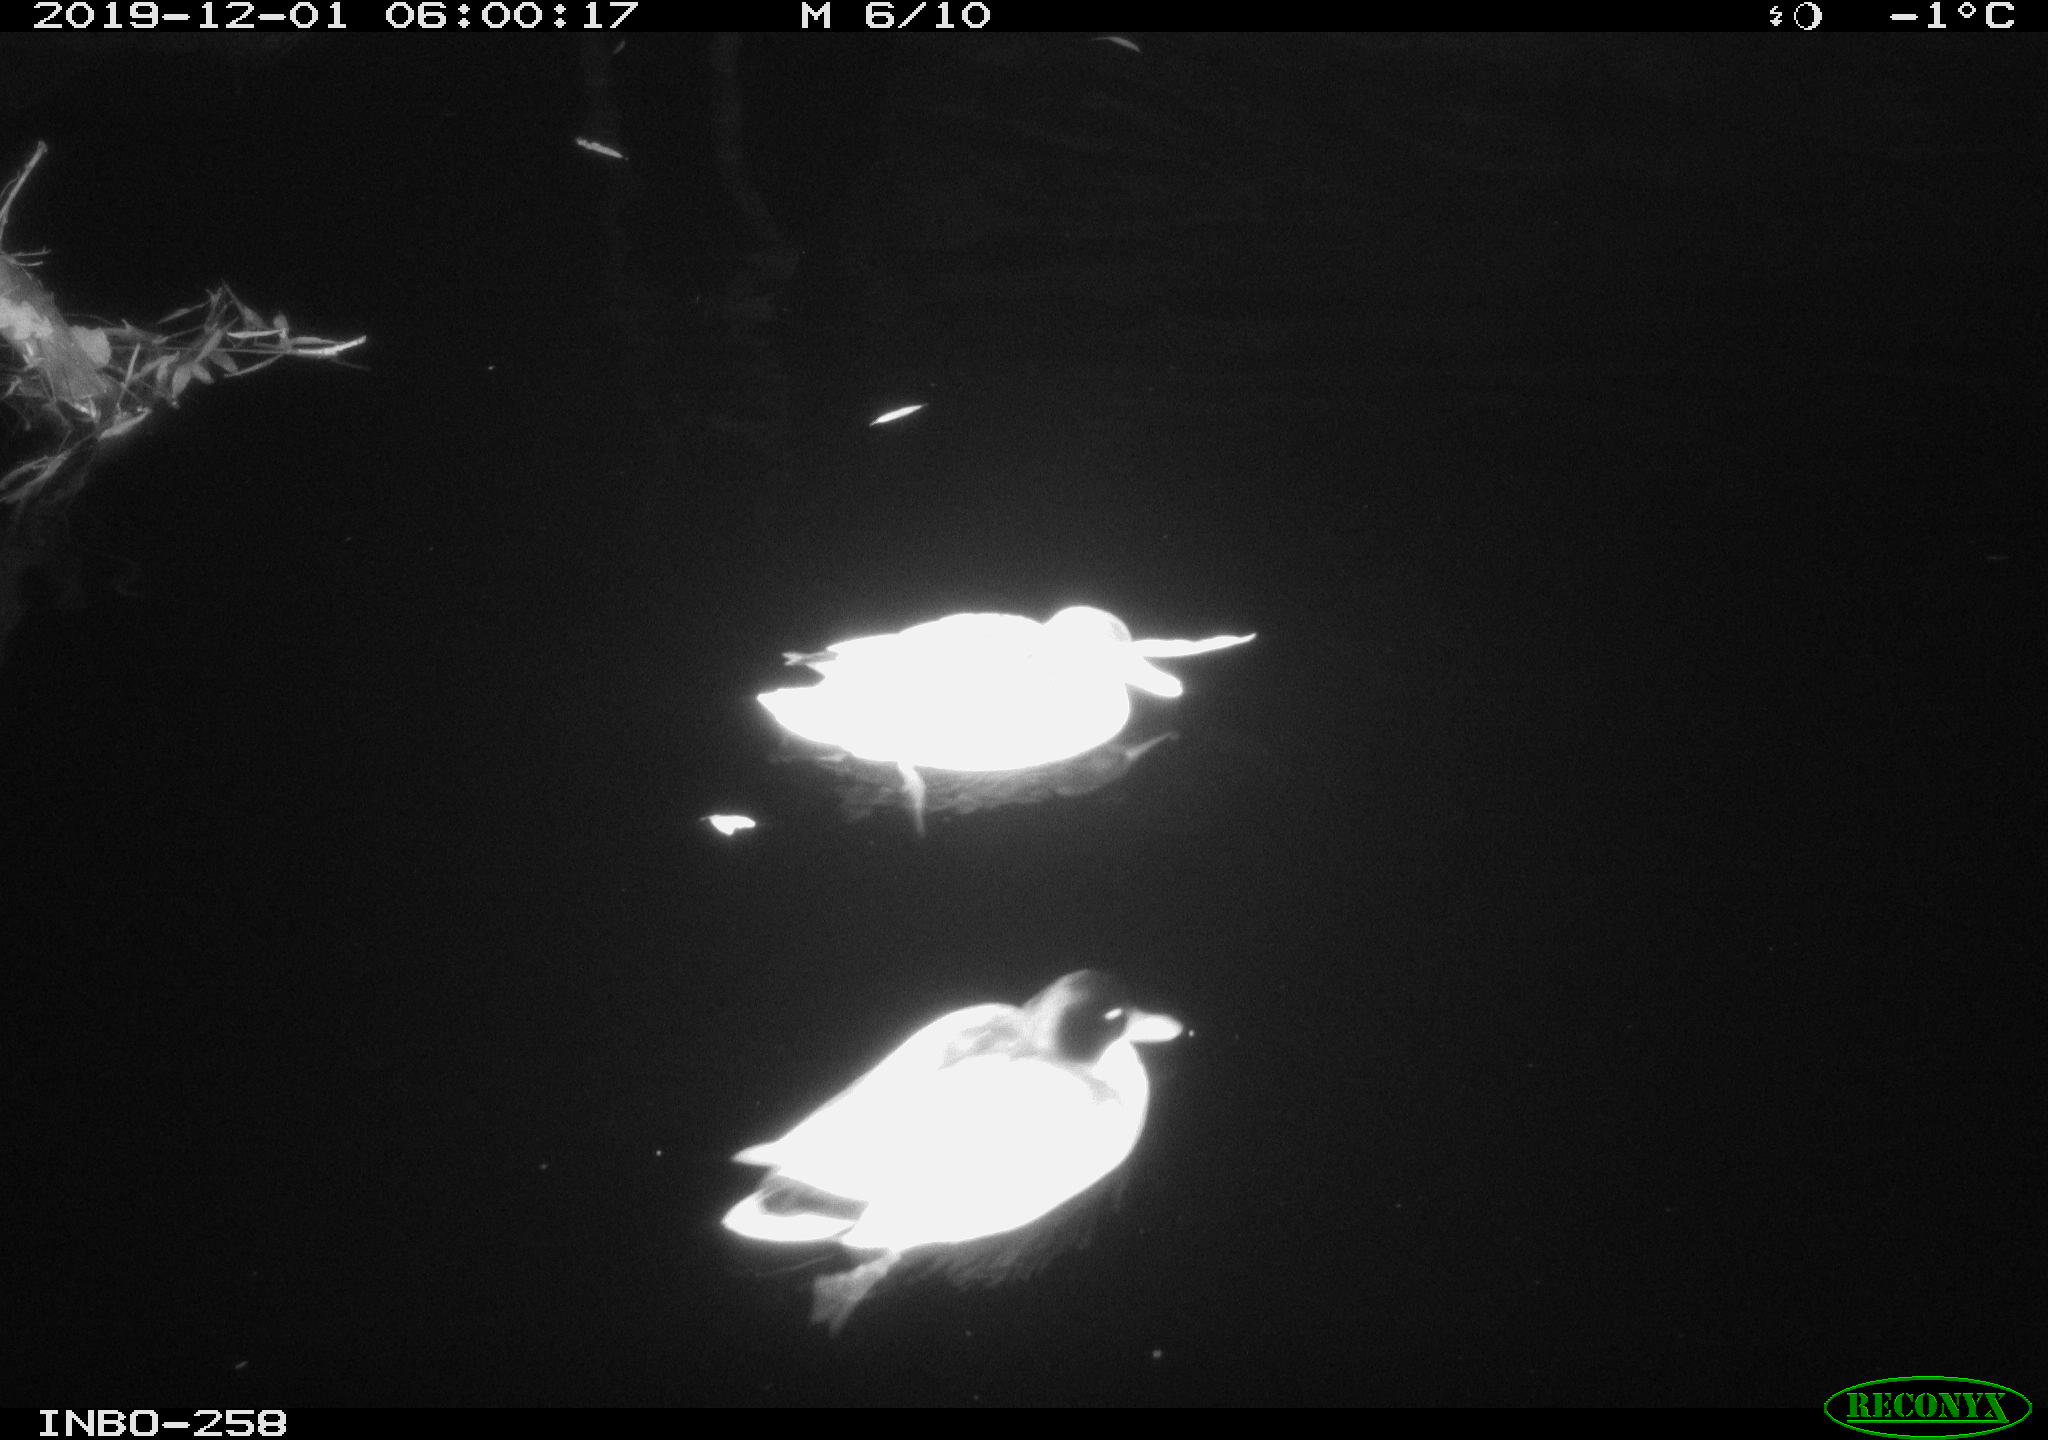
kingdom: Animalia
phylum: Chordata
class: Aves
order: Anseriformes
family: Anatidae
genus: Anas
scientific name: Anas platyrhynchos
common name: Mallard
